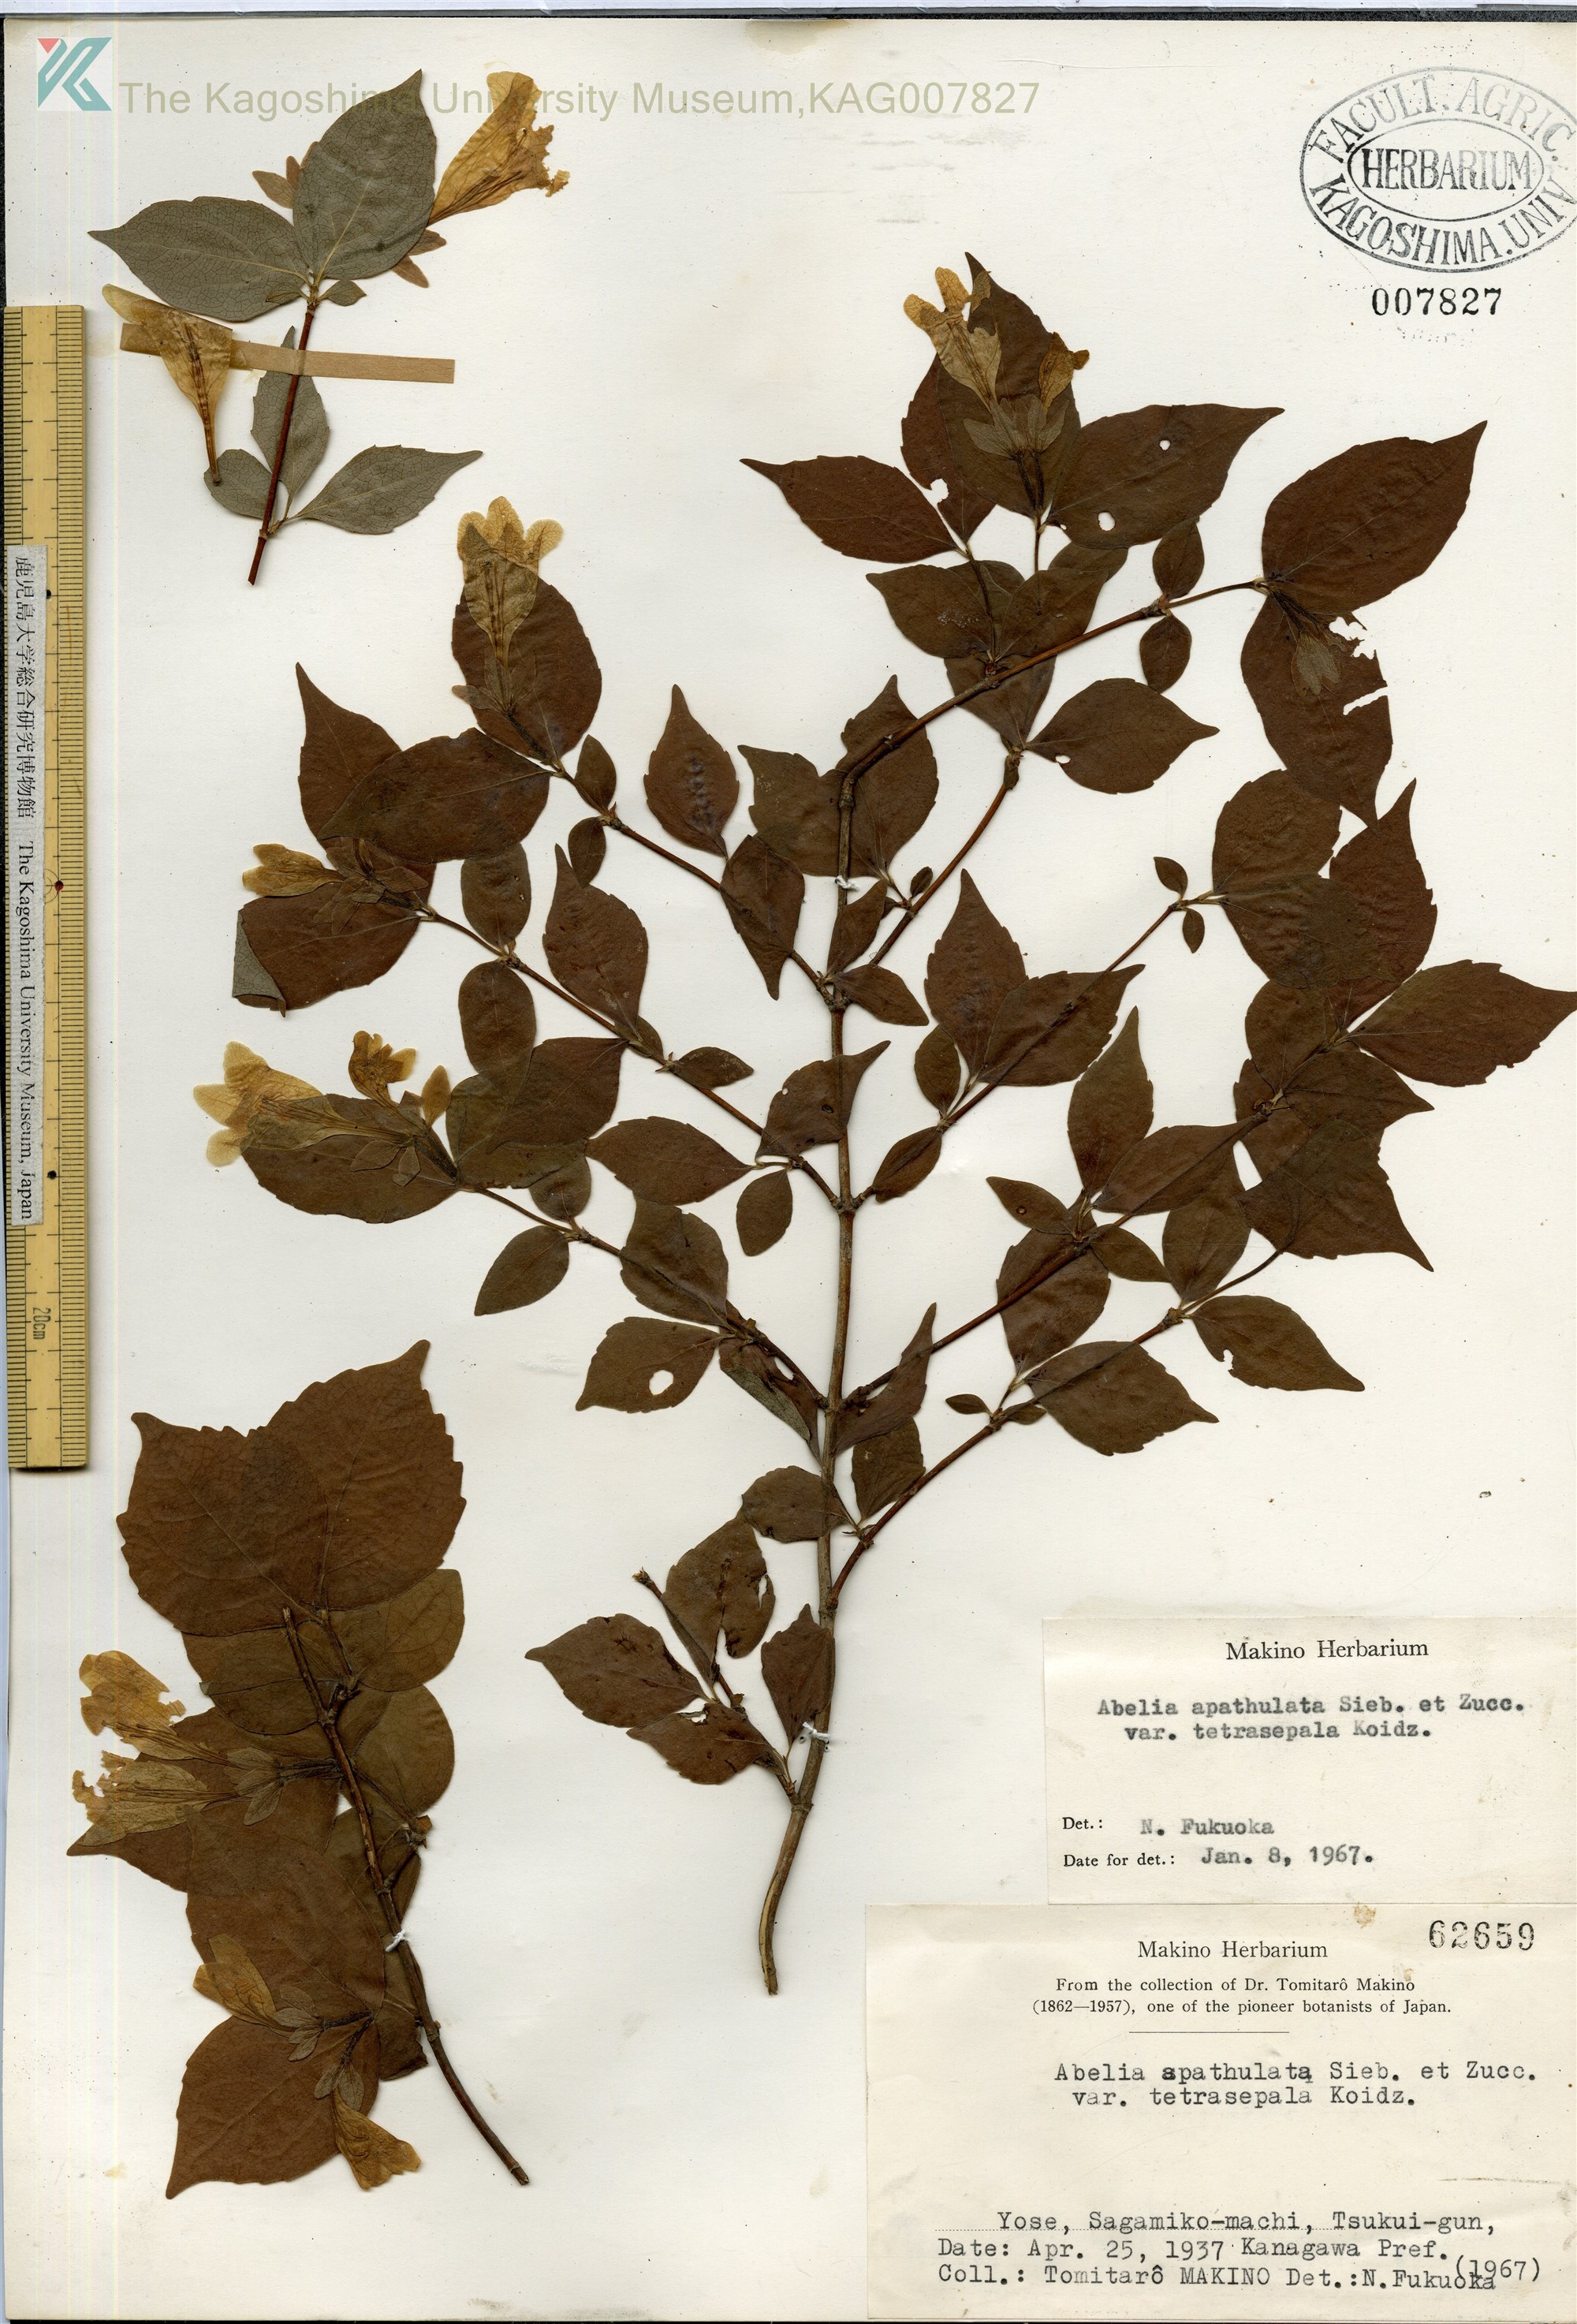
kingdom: Plantae
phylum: Tracheophyta
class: Magnoliopsida
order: Dipsacales
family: Caprifoliaceae
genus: Diabelia
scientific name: Diabelia ionostachya
